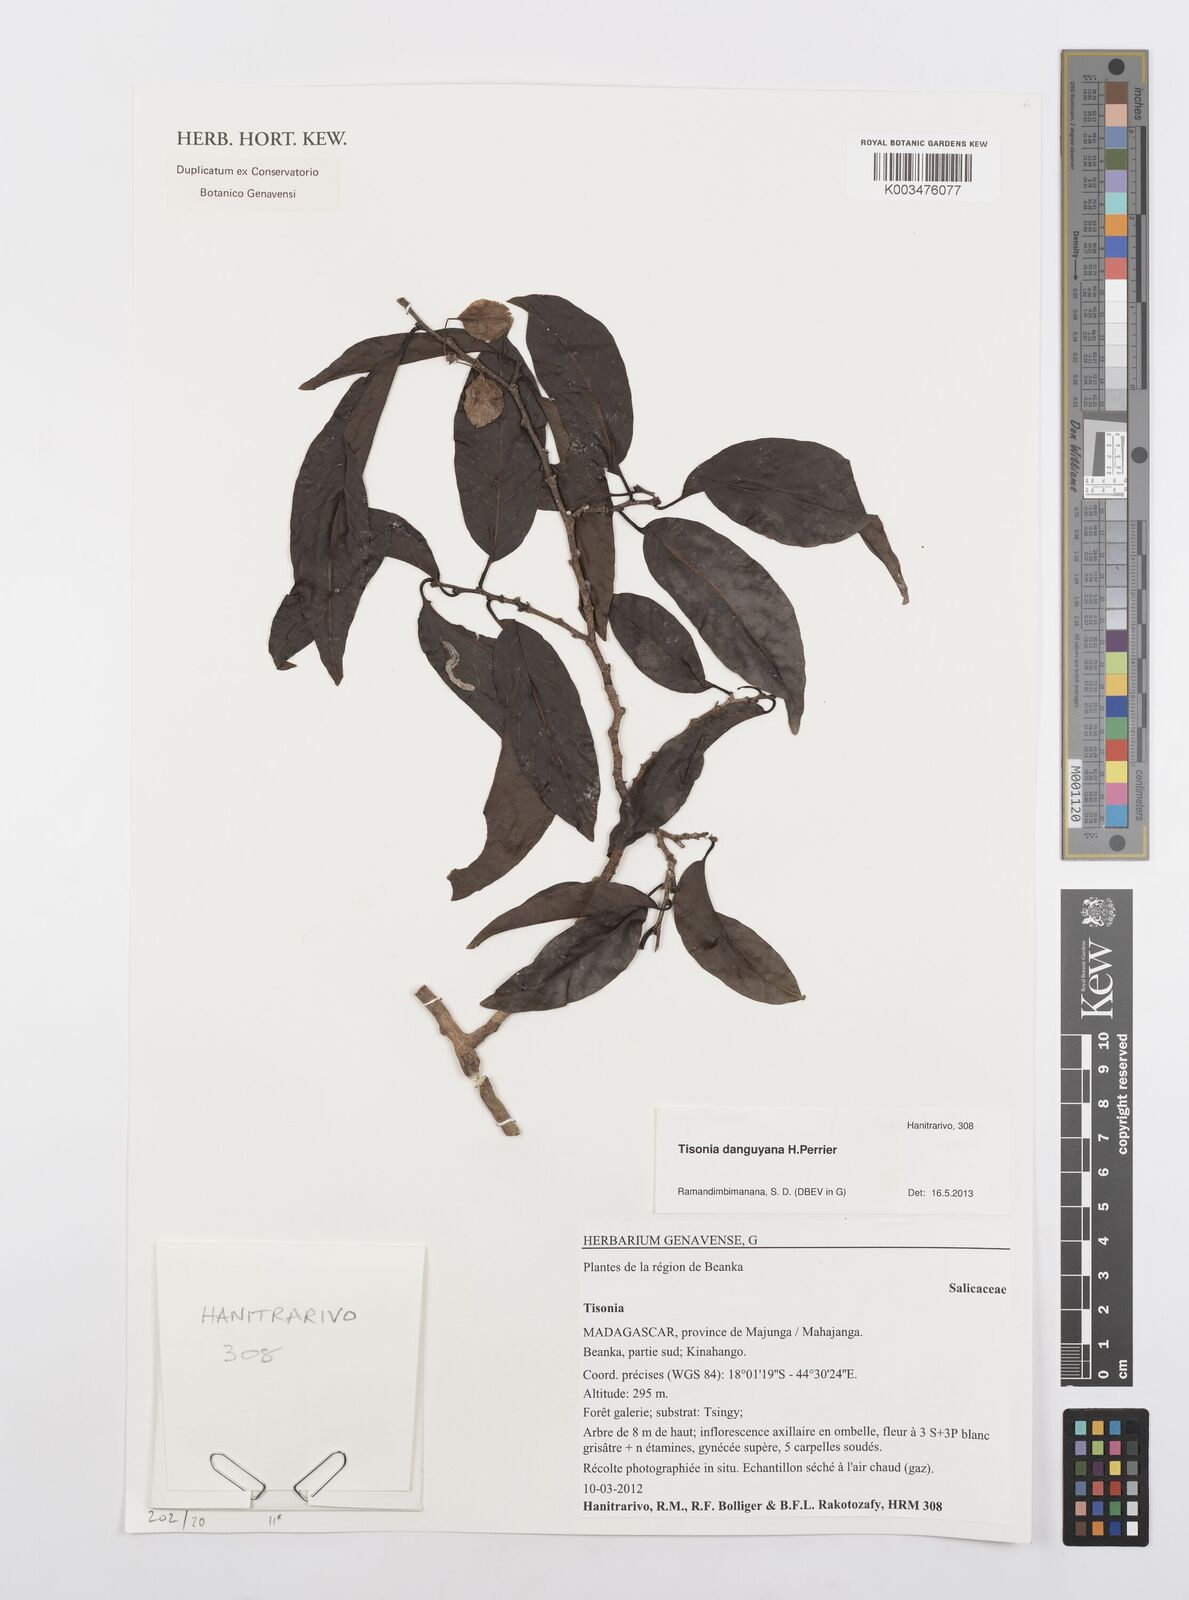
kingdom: Plantae
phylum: Tracheophyta
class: Magnoliopsida
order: Malpighiales
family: Salicaceae
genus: Tisonia
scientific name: Tisonia leandriana
